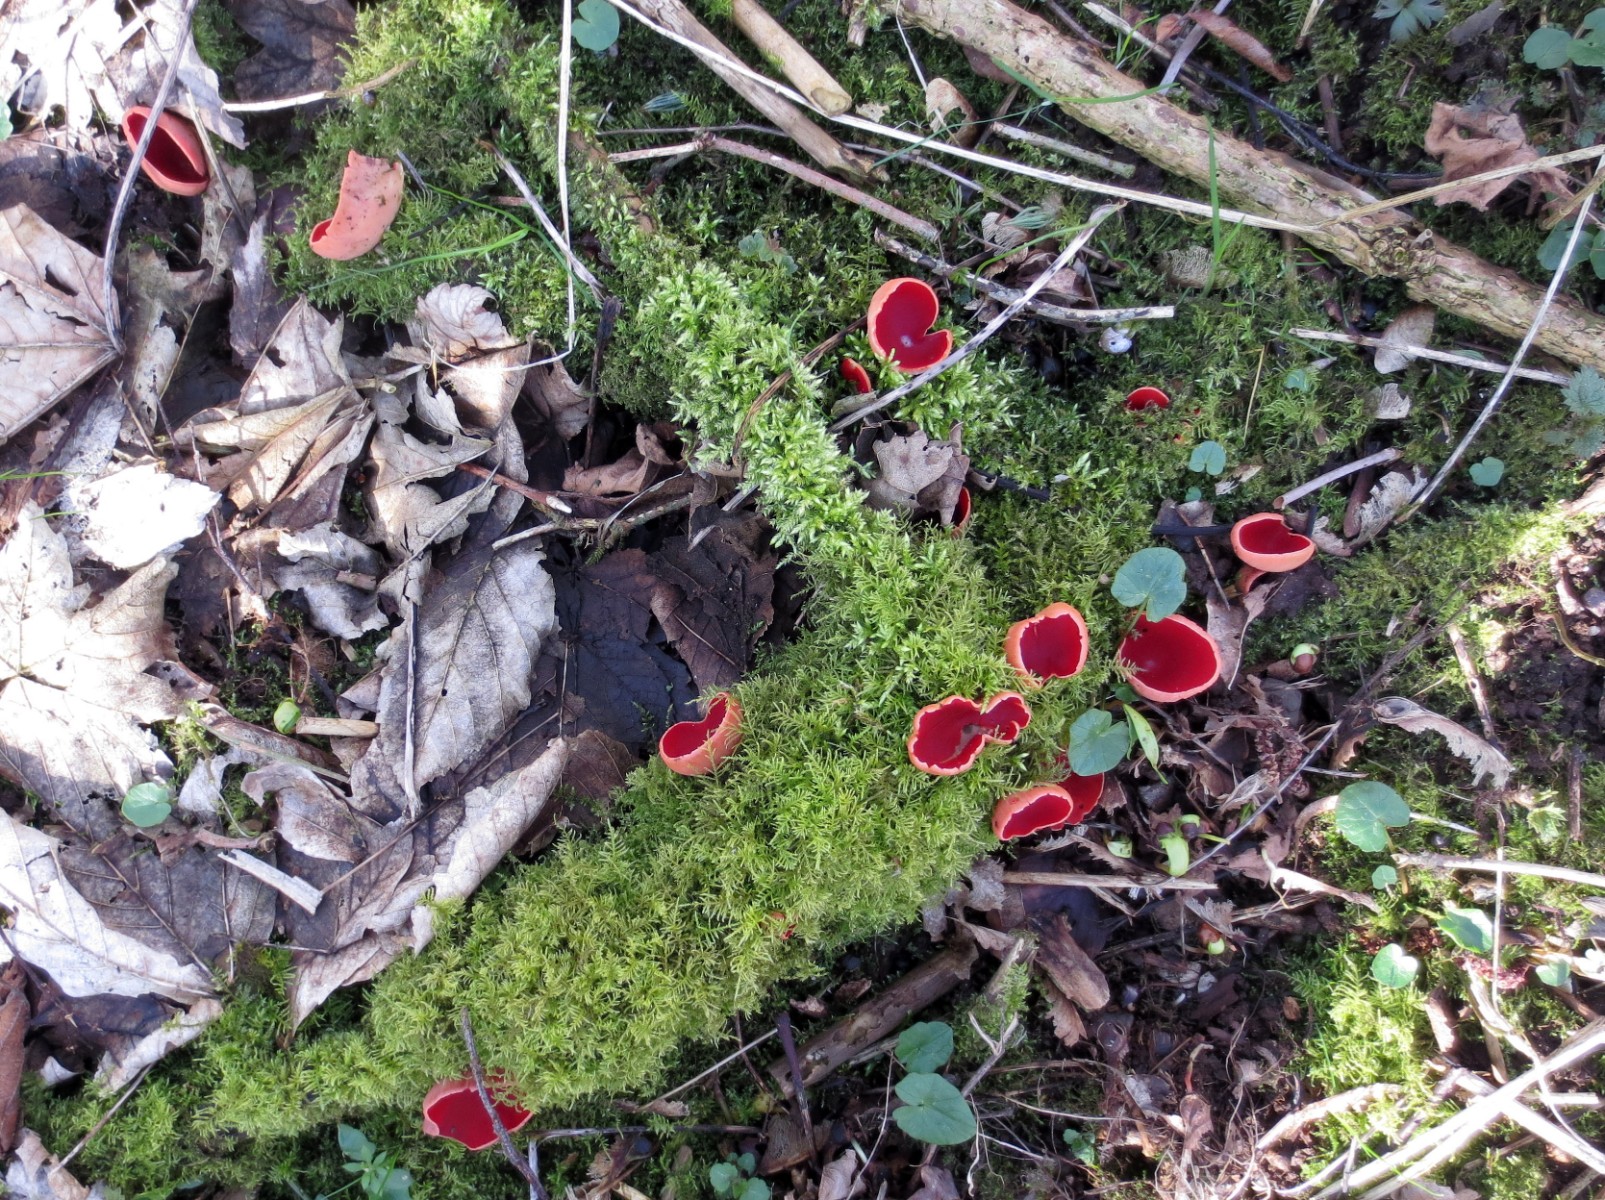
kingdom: Fungi
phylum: Ascomycota
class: Pezizomycetes
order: Pezizales
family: Sarcoscyphaceae
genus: Sarcoscypha
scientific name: Sarcoscypha austriaca
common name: krølhåret pragtbæger
